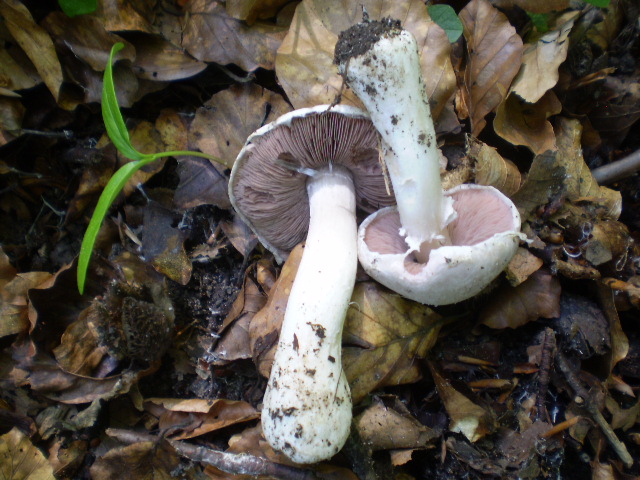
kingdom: Fungi
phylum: Basidiomycota
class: Agaricomycetes
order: Agaricales
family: Agaricaceae
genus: Agaricus
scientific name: Agaricus altipes
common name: sommer-champignon
